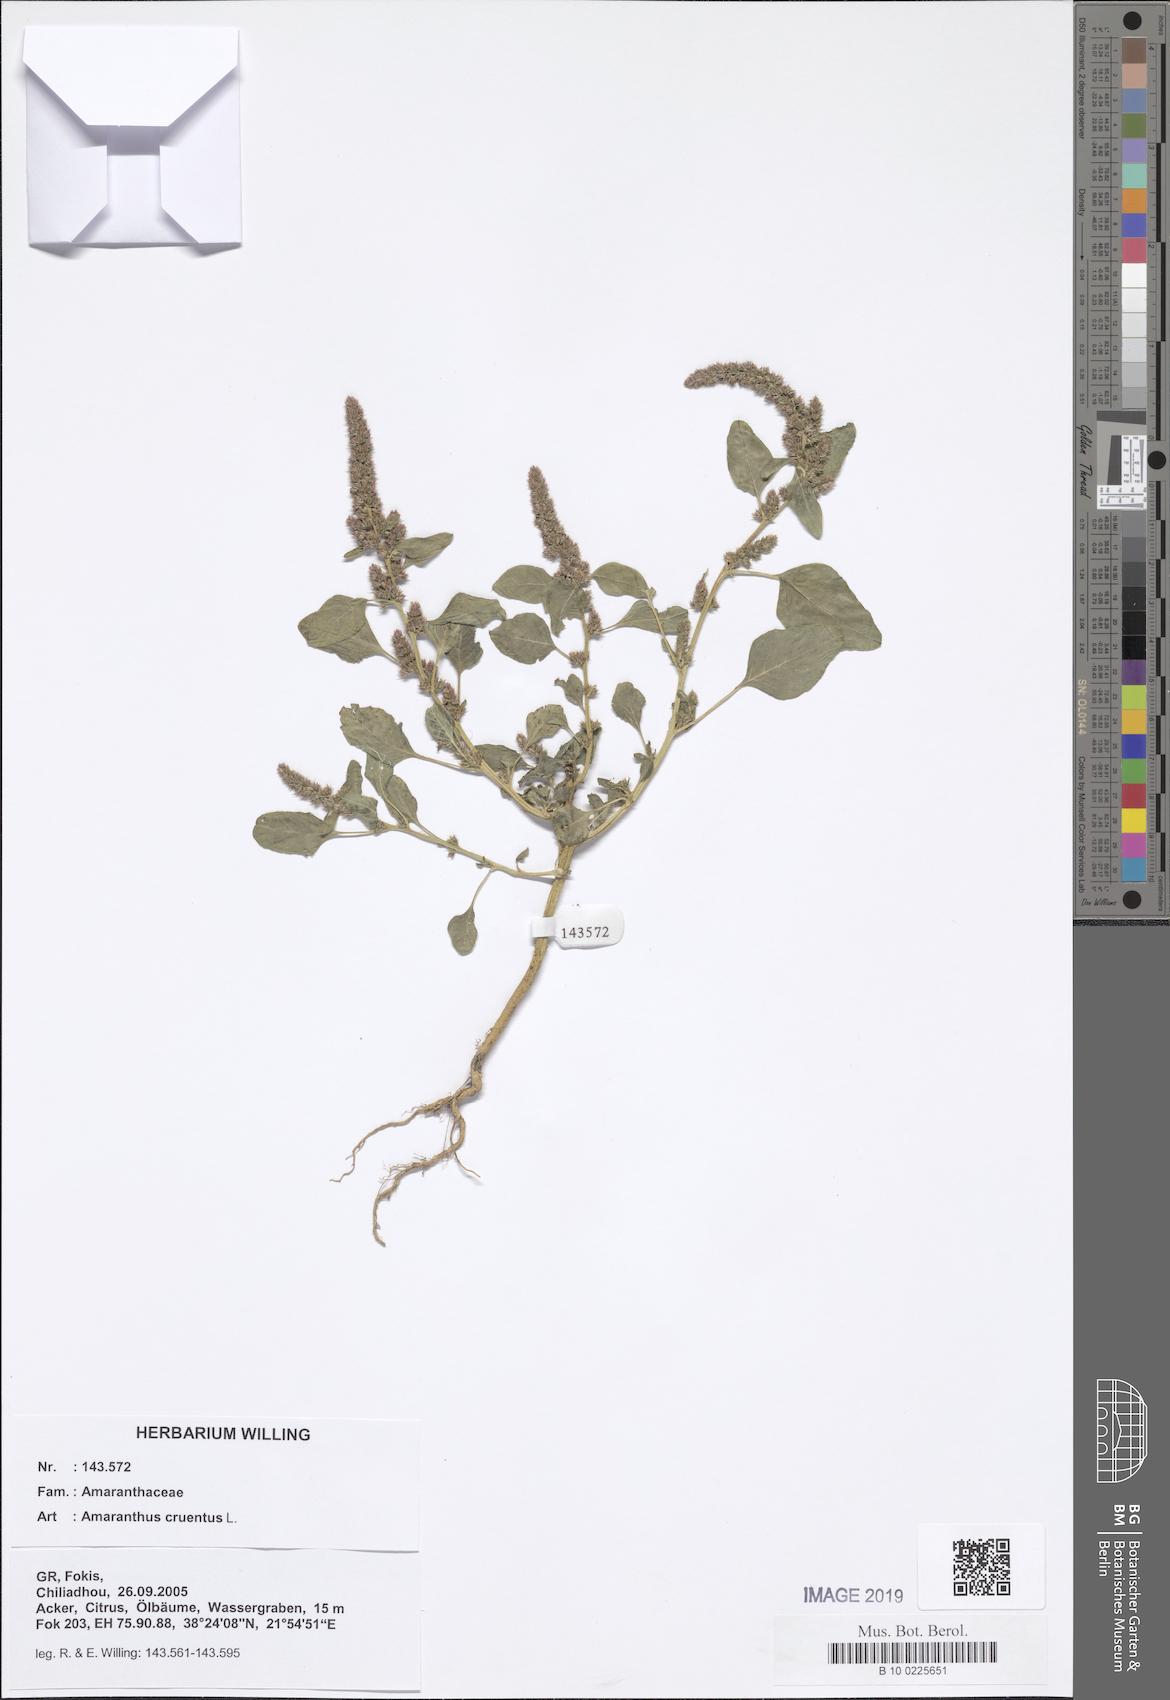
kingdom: Plantae
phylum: Tracheophyta
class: Magnoliopsida
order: Caryophyllales
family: Amaranthaceae
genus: Amaranthus
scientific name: Amaranthus cruentus
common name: Purple amaranth
